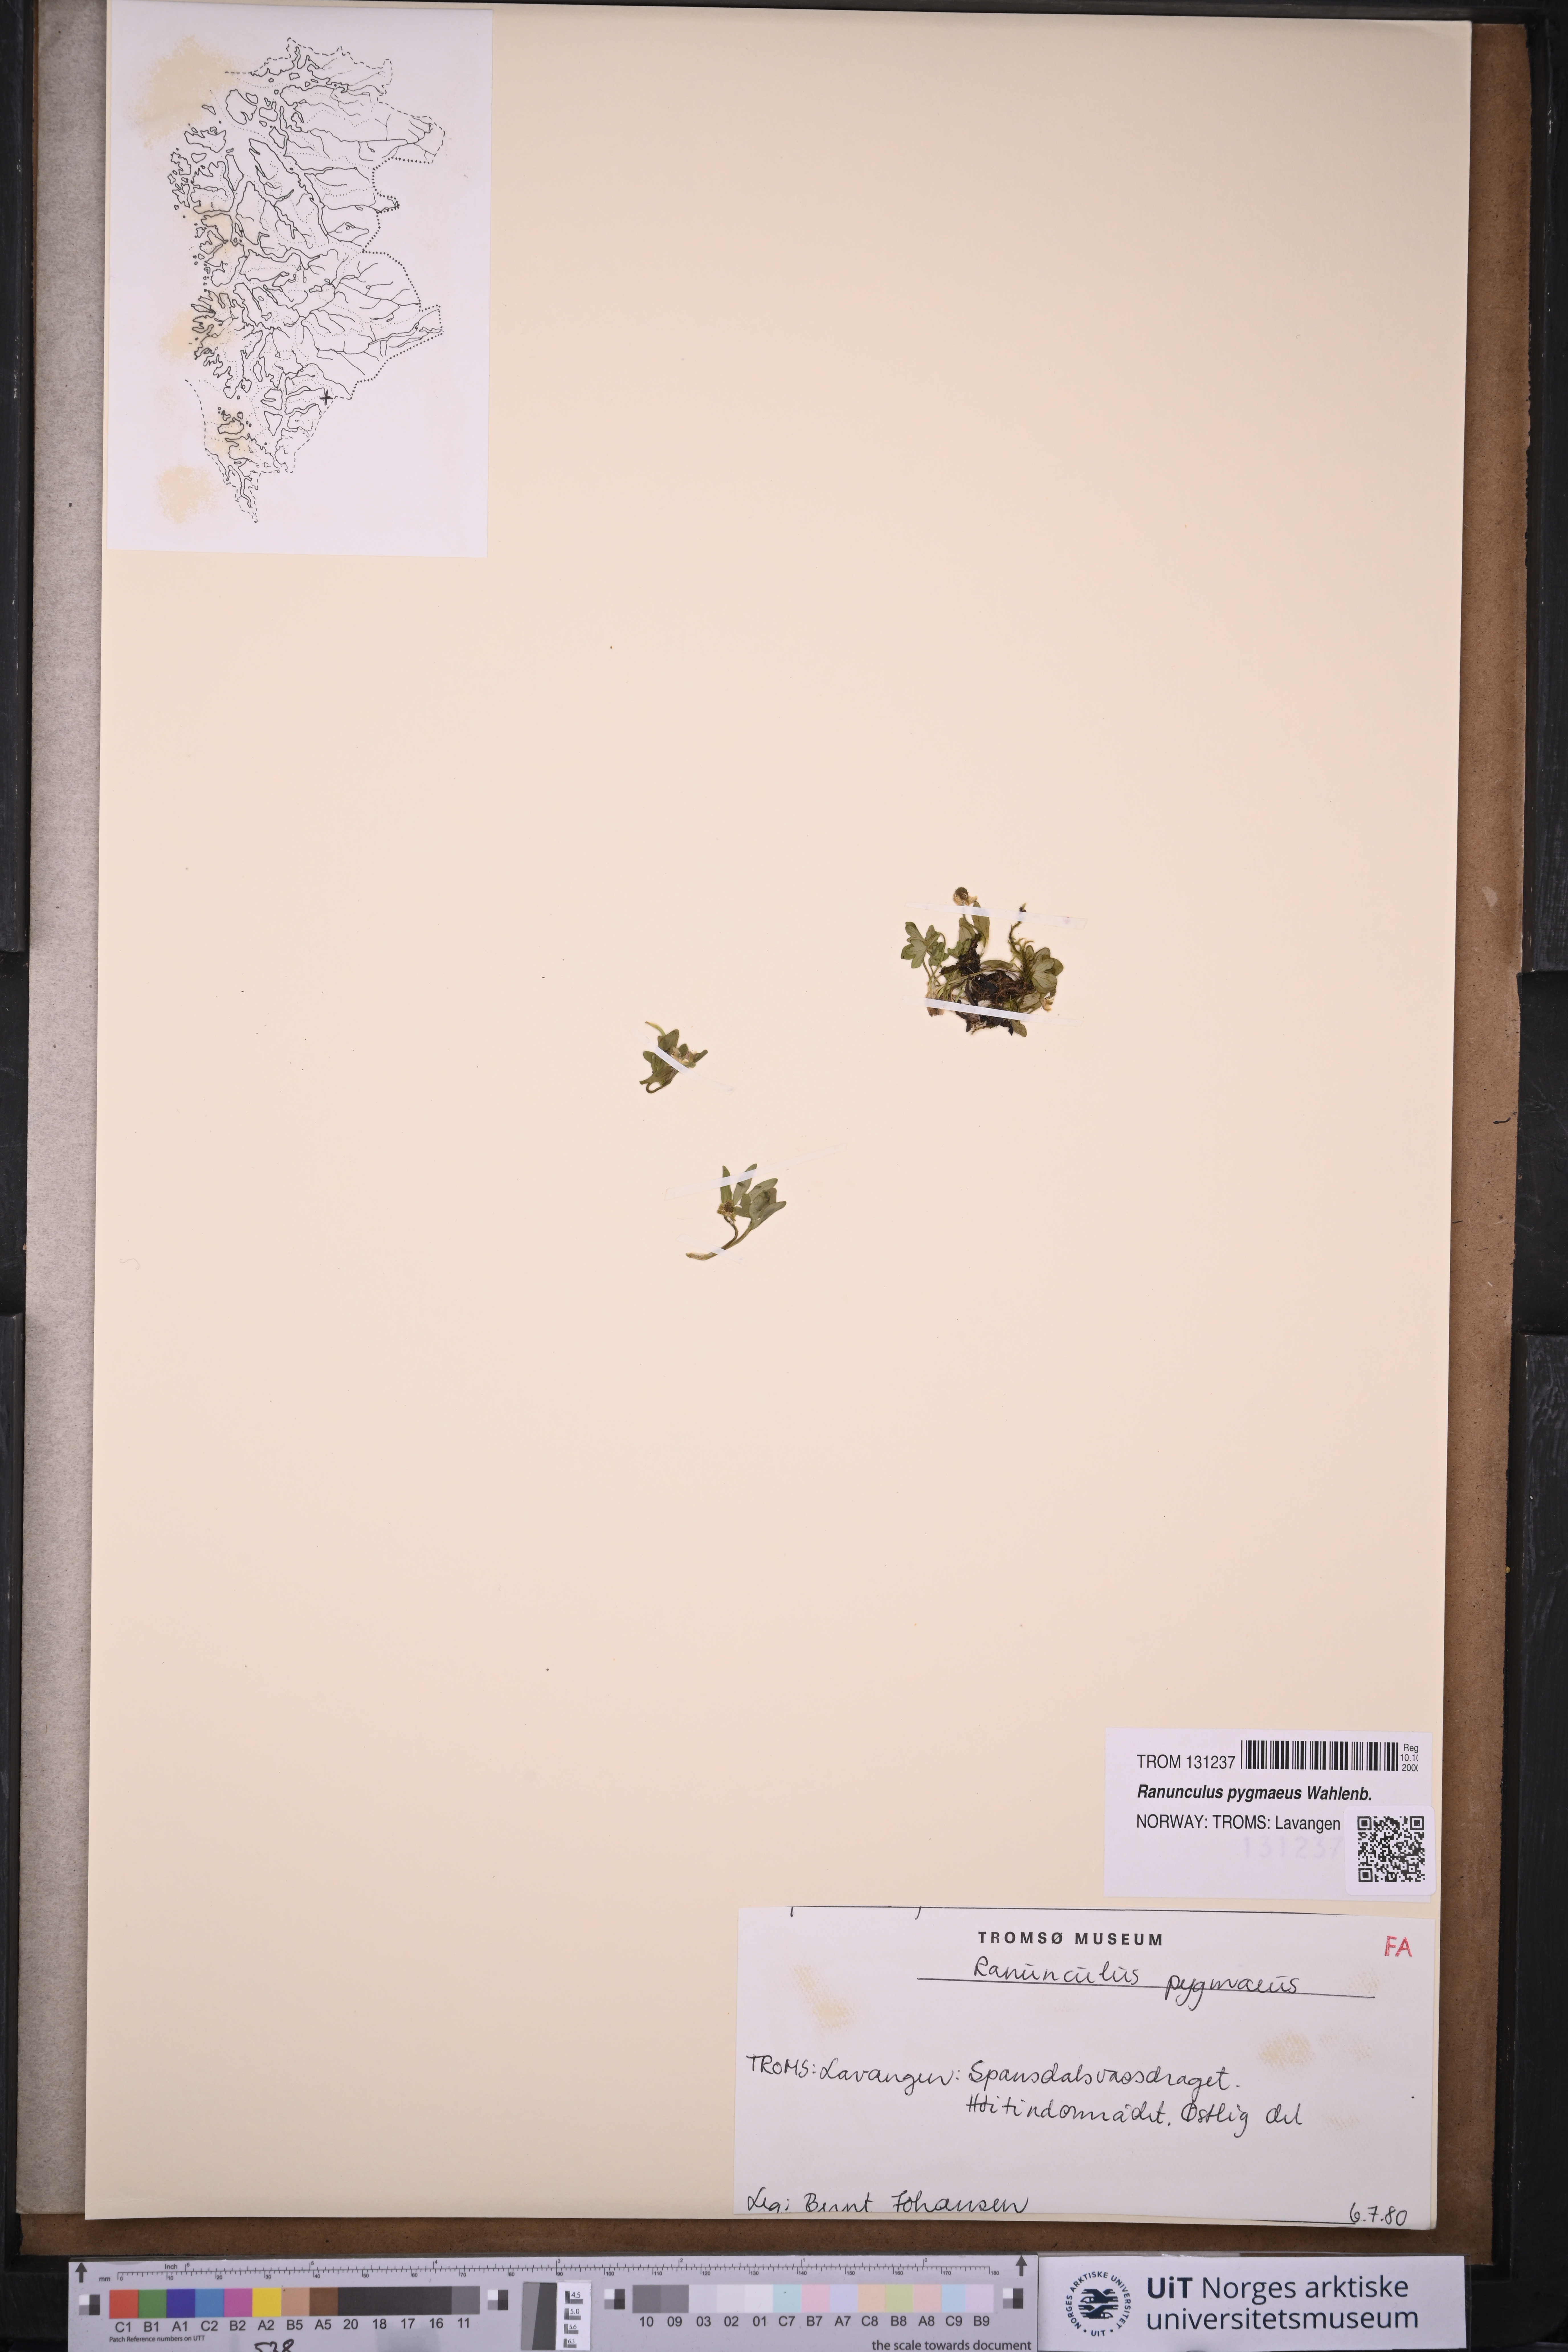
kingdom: Plantae
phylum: Tracheophyta
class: Magnoliopsida
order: Ranunculales
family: Ranunculaceae
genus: Ranunculus
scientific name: Ranunculus pygmaeus
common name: Dwarf buttercup
